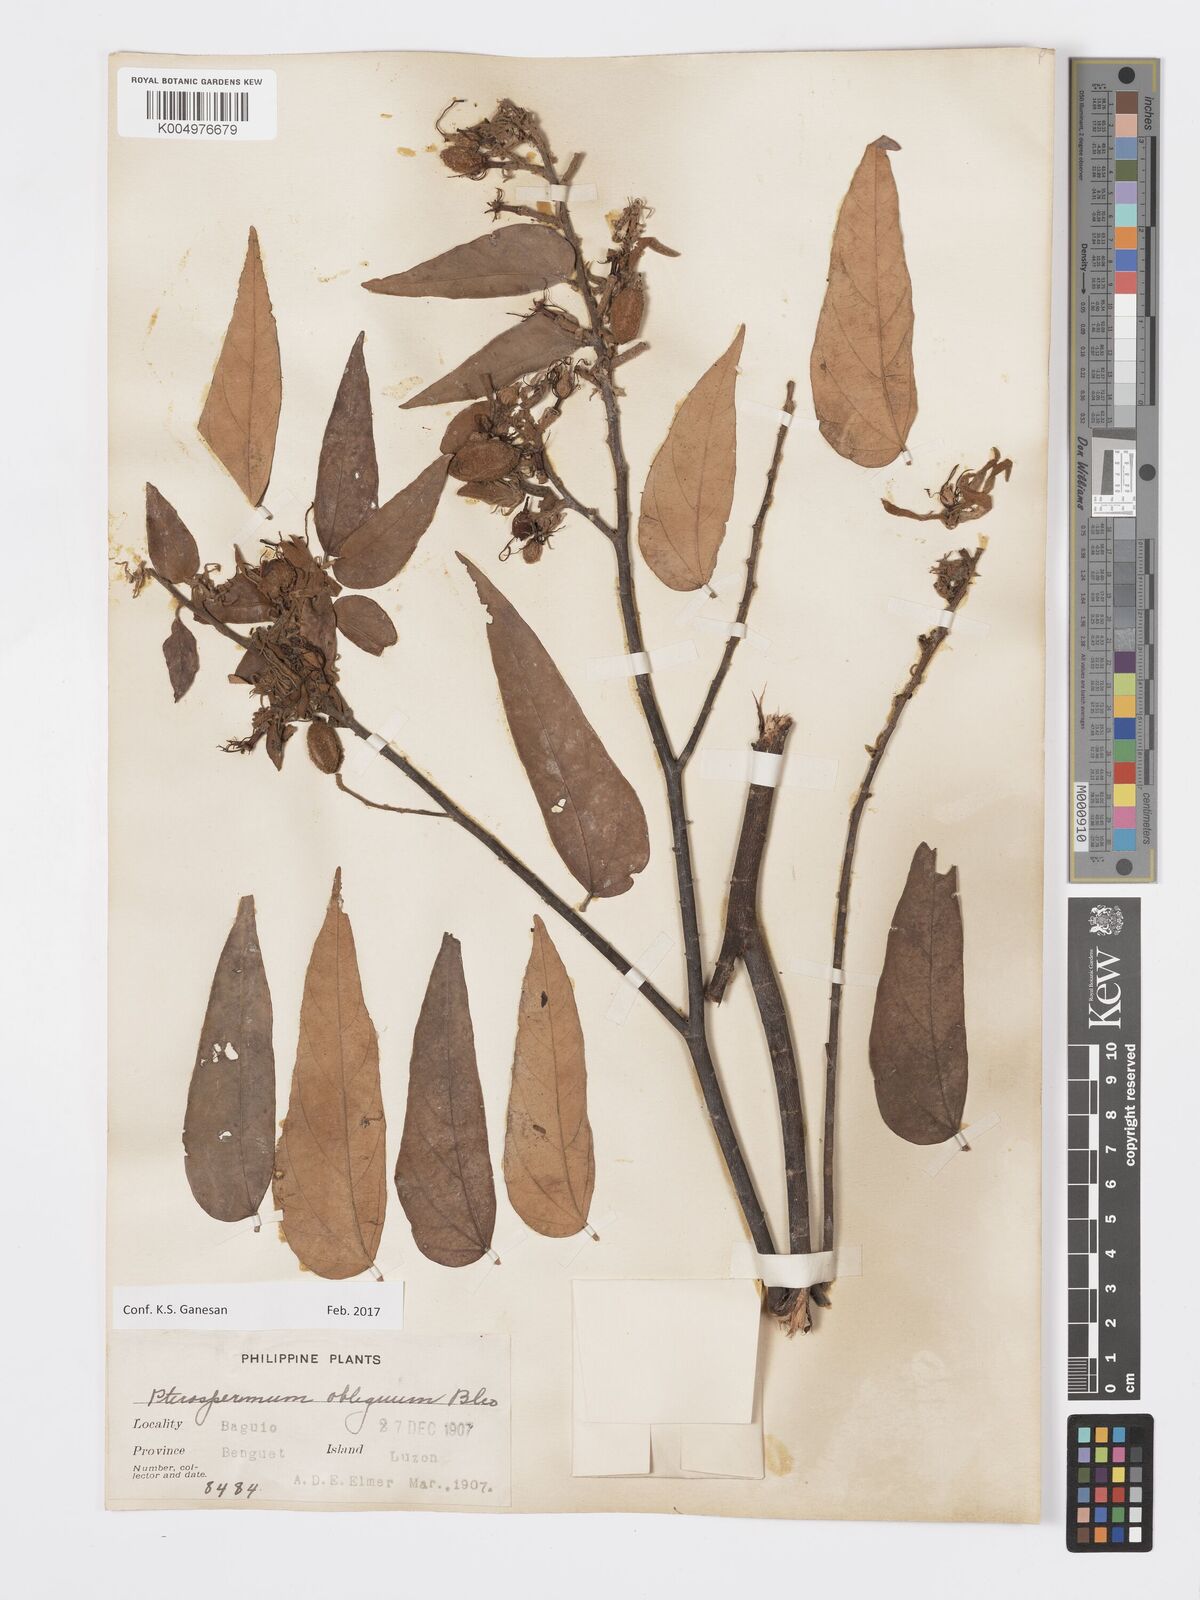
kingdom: Plantae
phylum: Tracheophyta
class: Magnoliopsida
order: Malvales
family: Malvaceae
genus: Pterospermum
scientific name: Pterospermum obliquum
